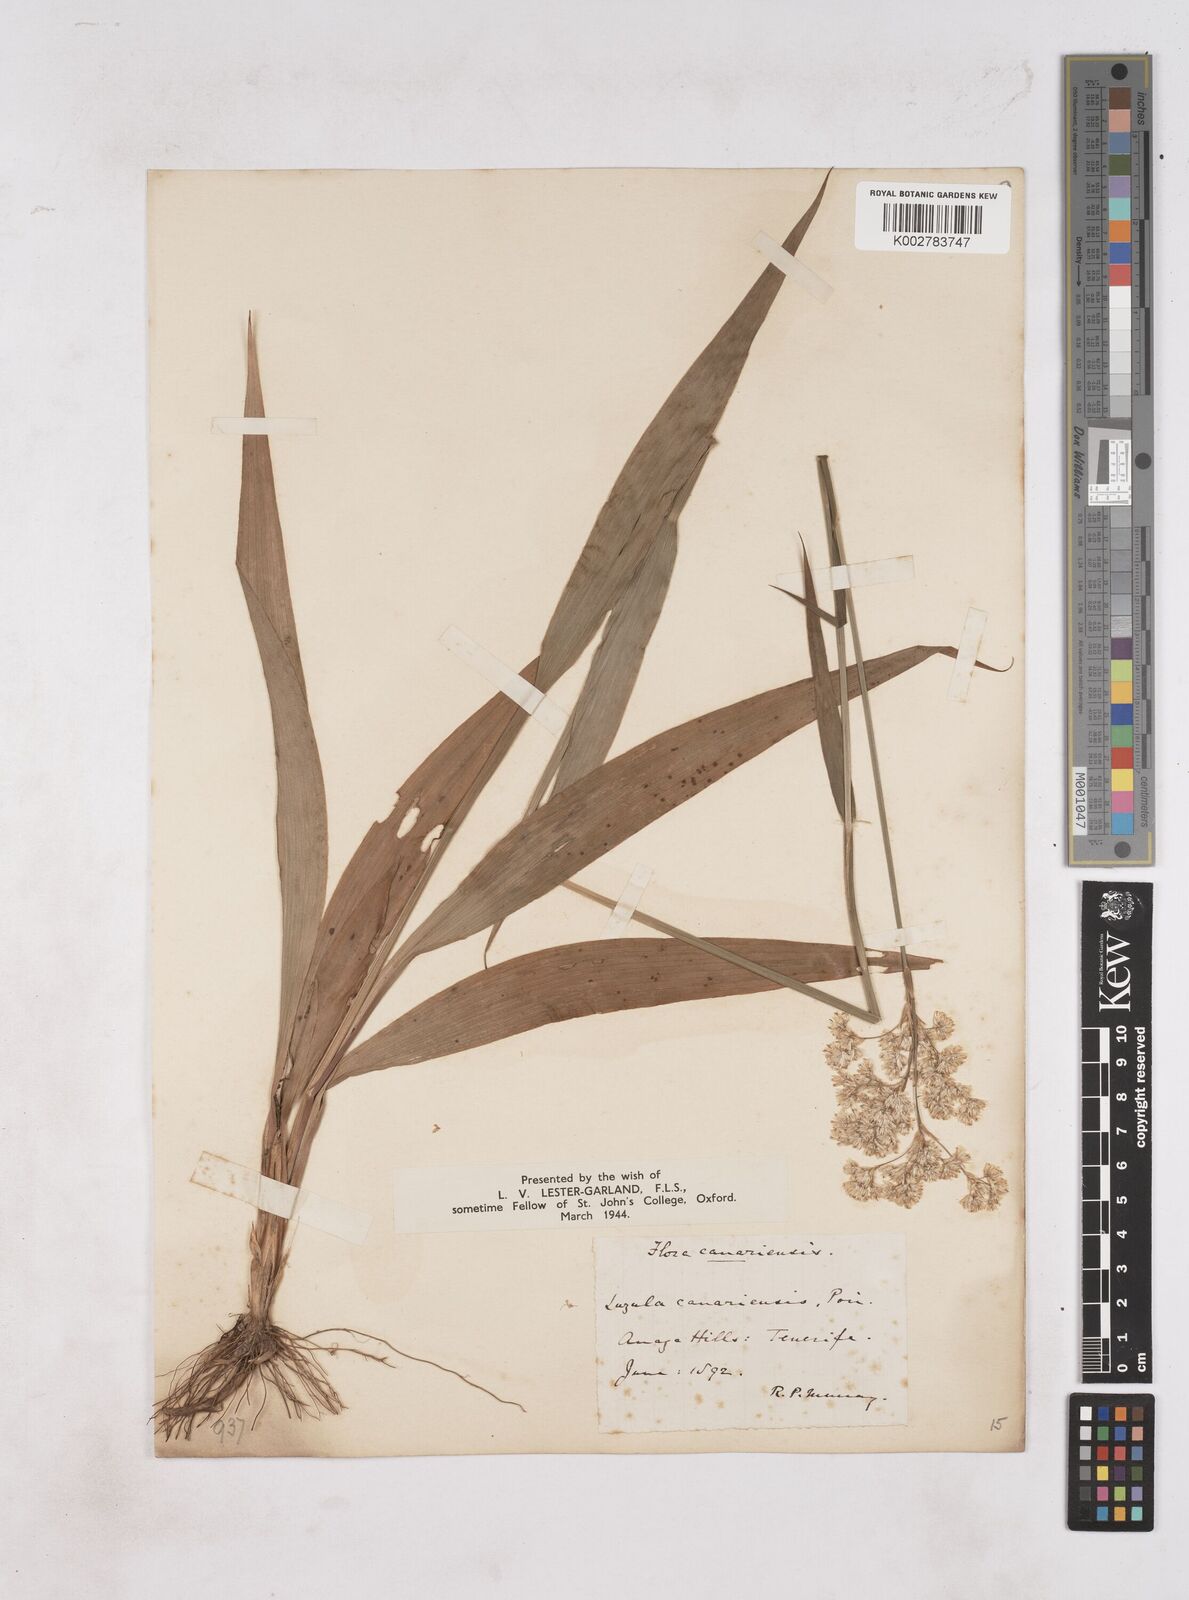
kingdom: Plantae
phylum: Tracheophyta
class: Liliopsida
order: Poales
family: Juncaceae
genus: Luzula
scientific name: Luzula canariensis
